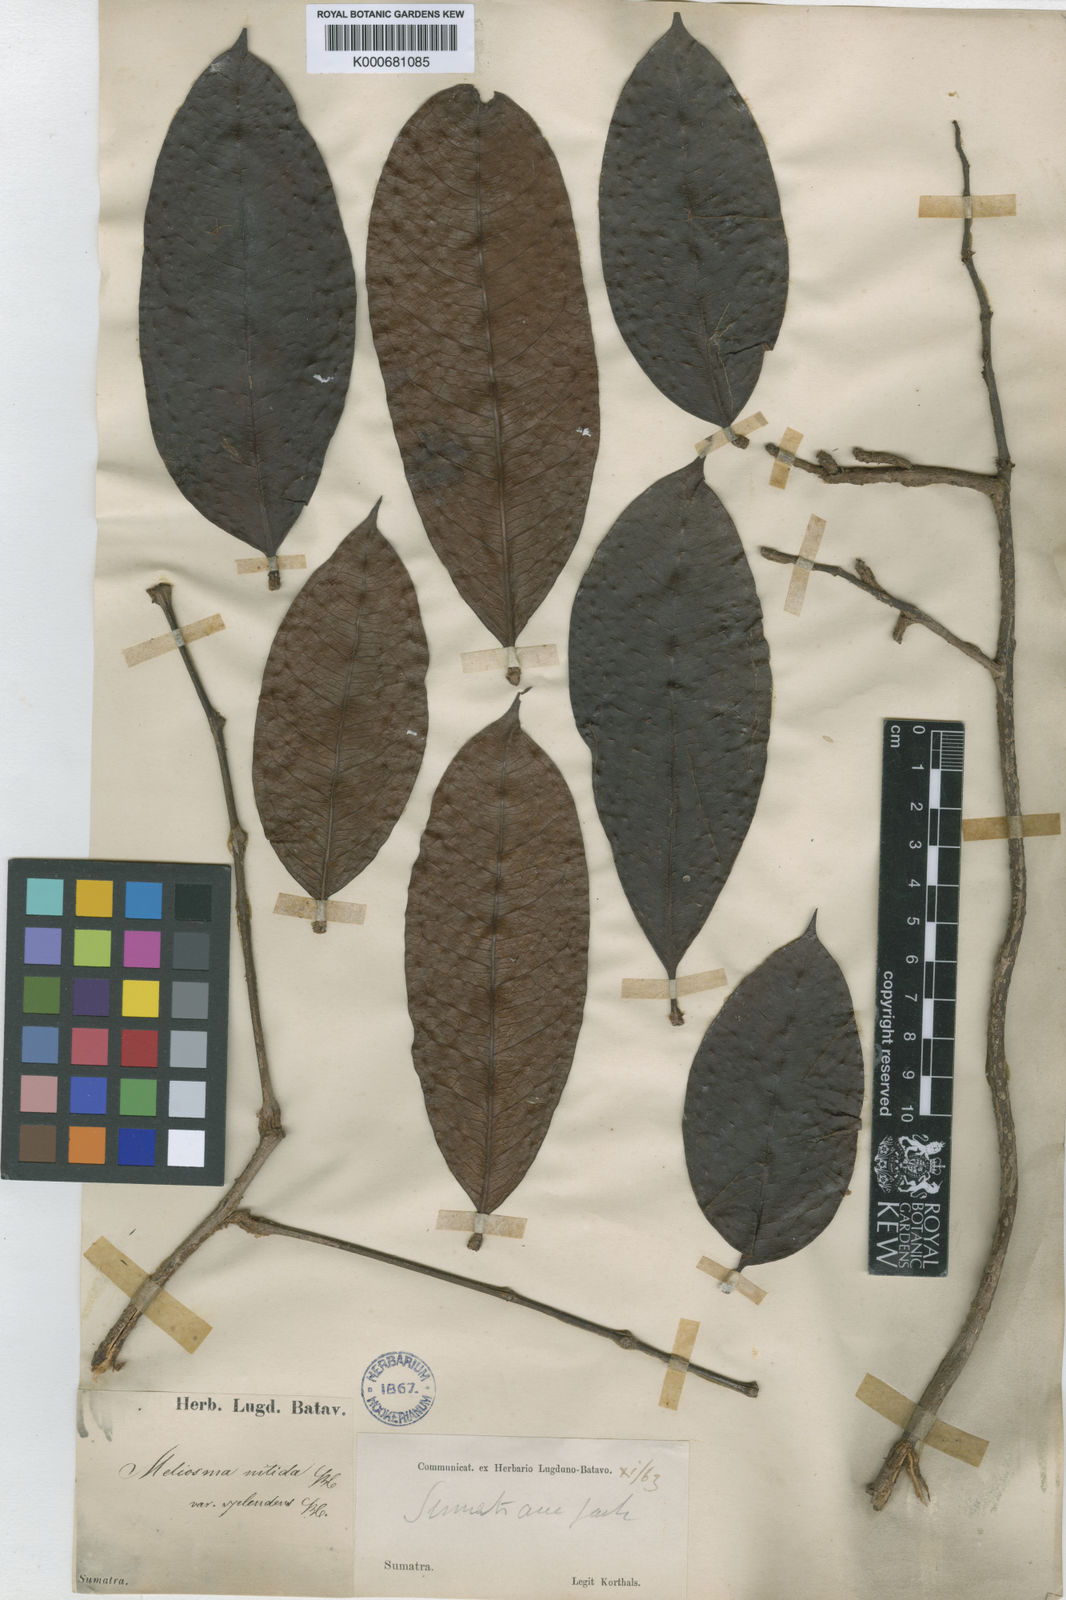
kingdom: Plantae
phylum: Tracheophyta
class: Magnoliopsida
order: Proteales
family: Sabiaceae
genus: Meliosma
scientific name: Meliosma sumatrana
